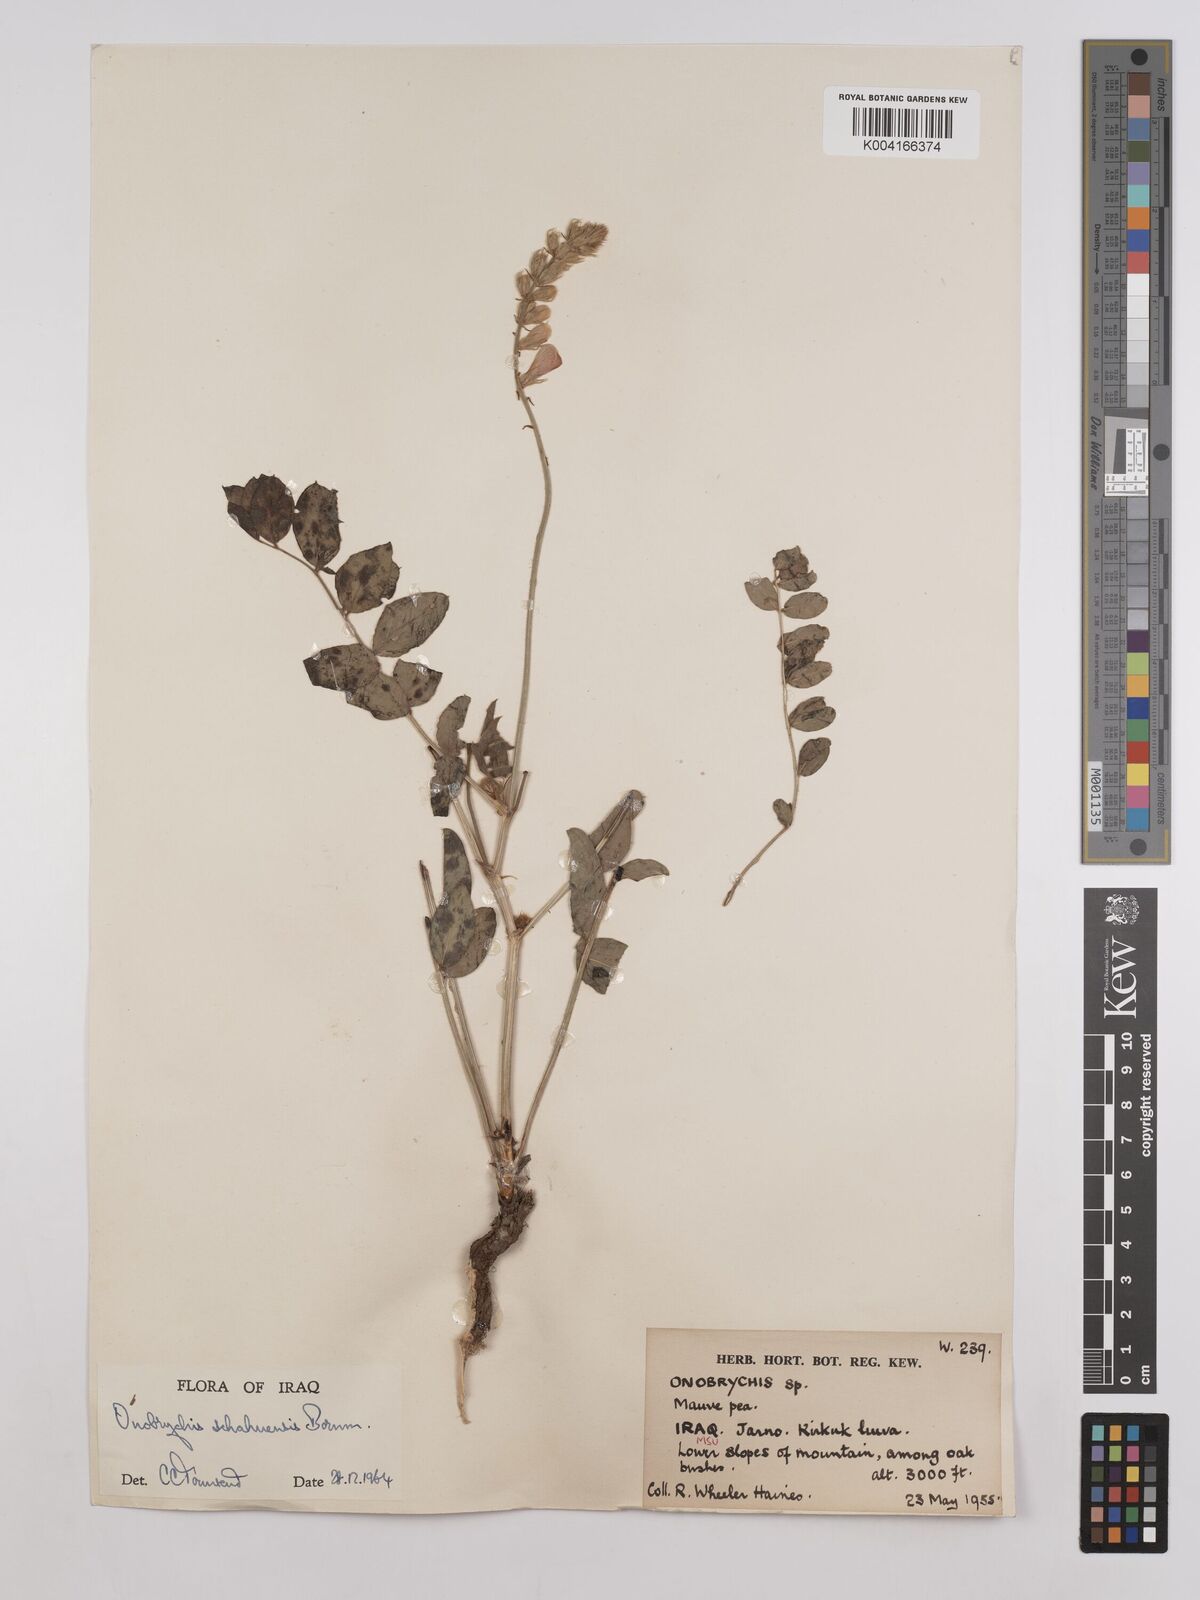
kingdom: Plantae
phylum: Tracheophyta
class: Magnoliopsida
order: Fabales
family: Fabaceae
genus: Onobrychis
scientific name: Onobrychis schahuensis
